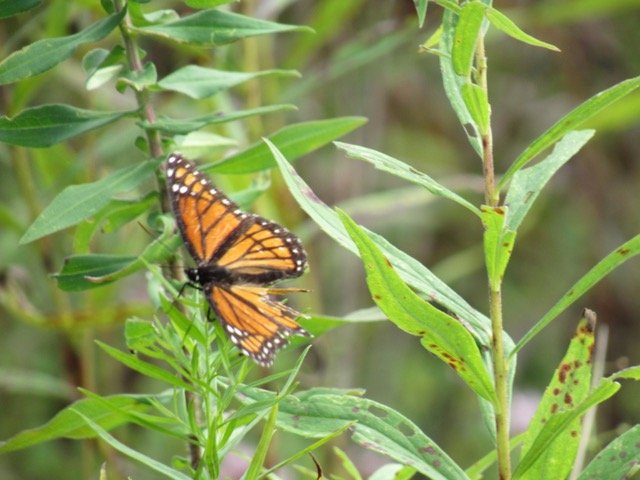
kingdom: Animalia
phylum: Arthropoda
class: Insecta
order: Lepidoptera
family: Nymphalidae
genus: Limenitis
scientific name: Limenitis archippus
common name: Viceroy
